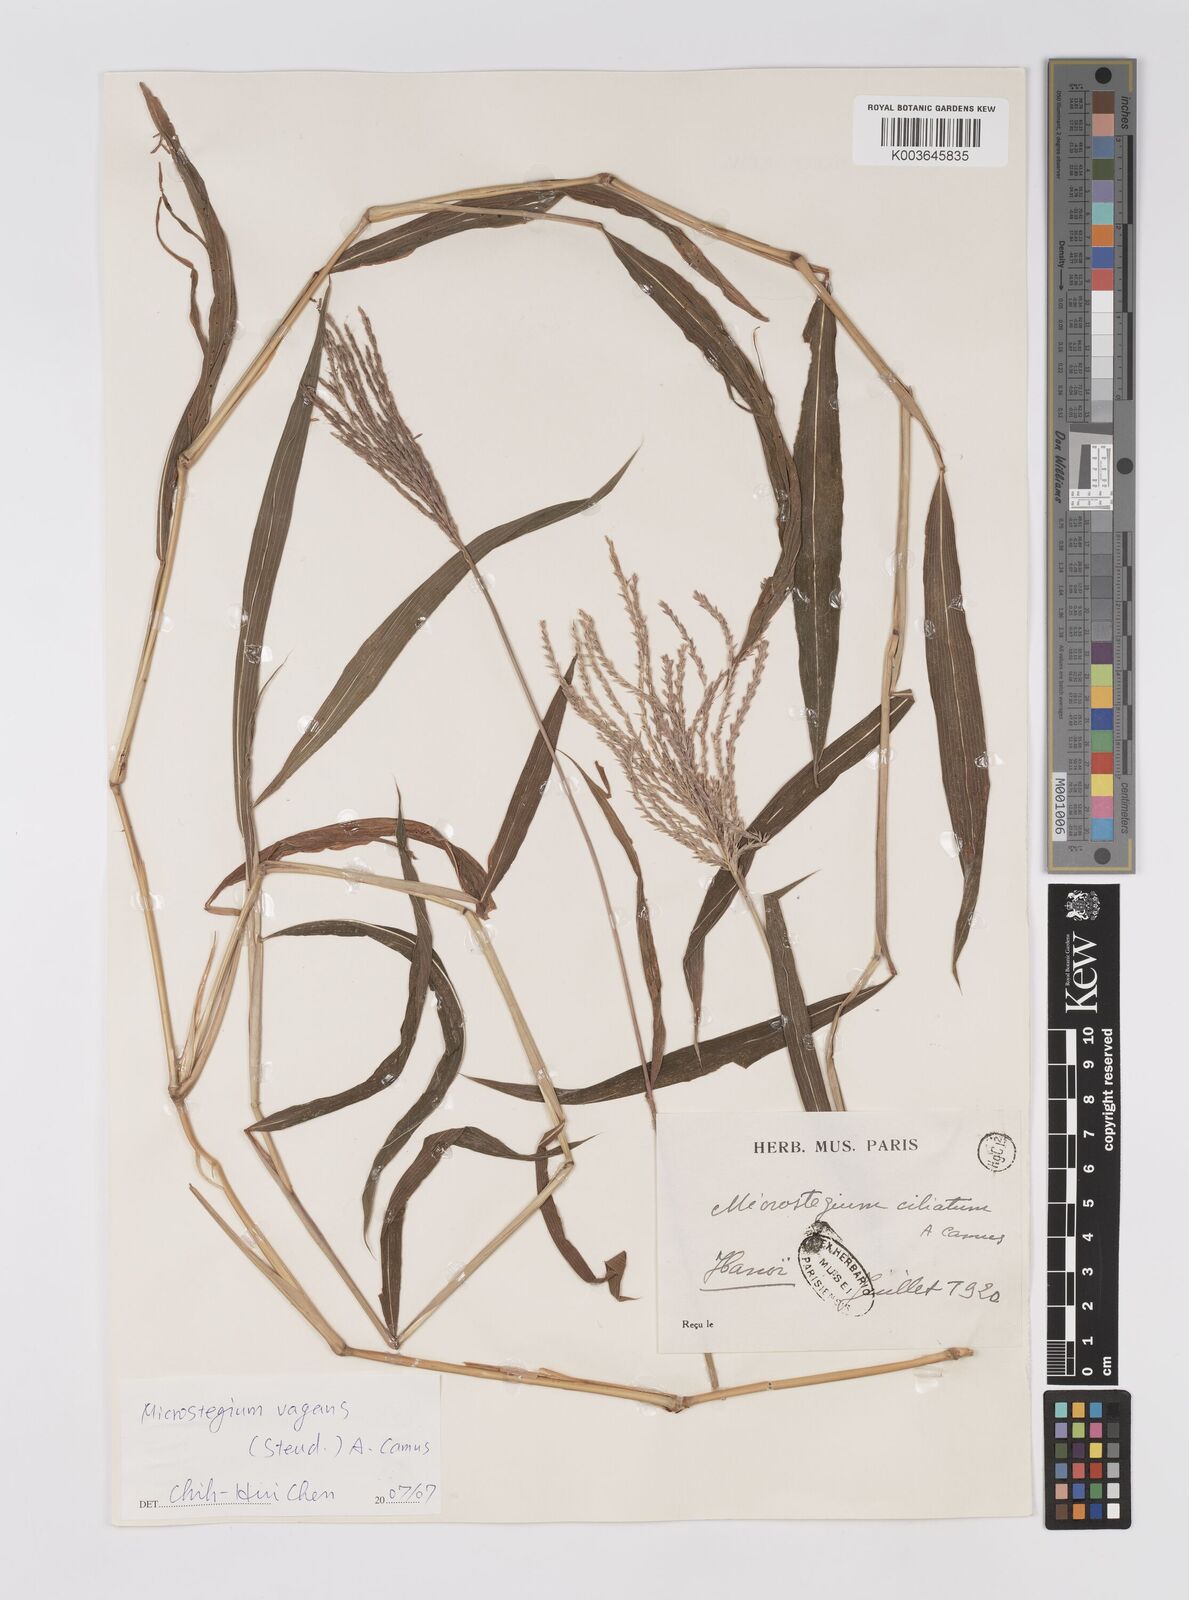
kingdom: Plantae
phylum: Tracheophyta
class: Liliopsida
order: Poales
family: Poaceae
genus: Microstegium
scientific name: Microstegium fasciculatum
